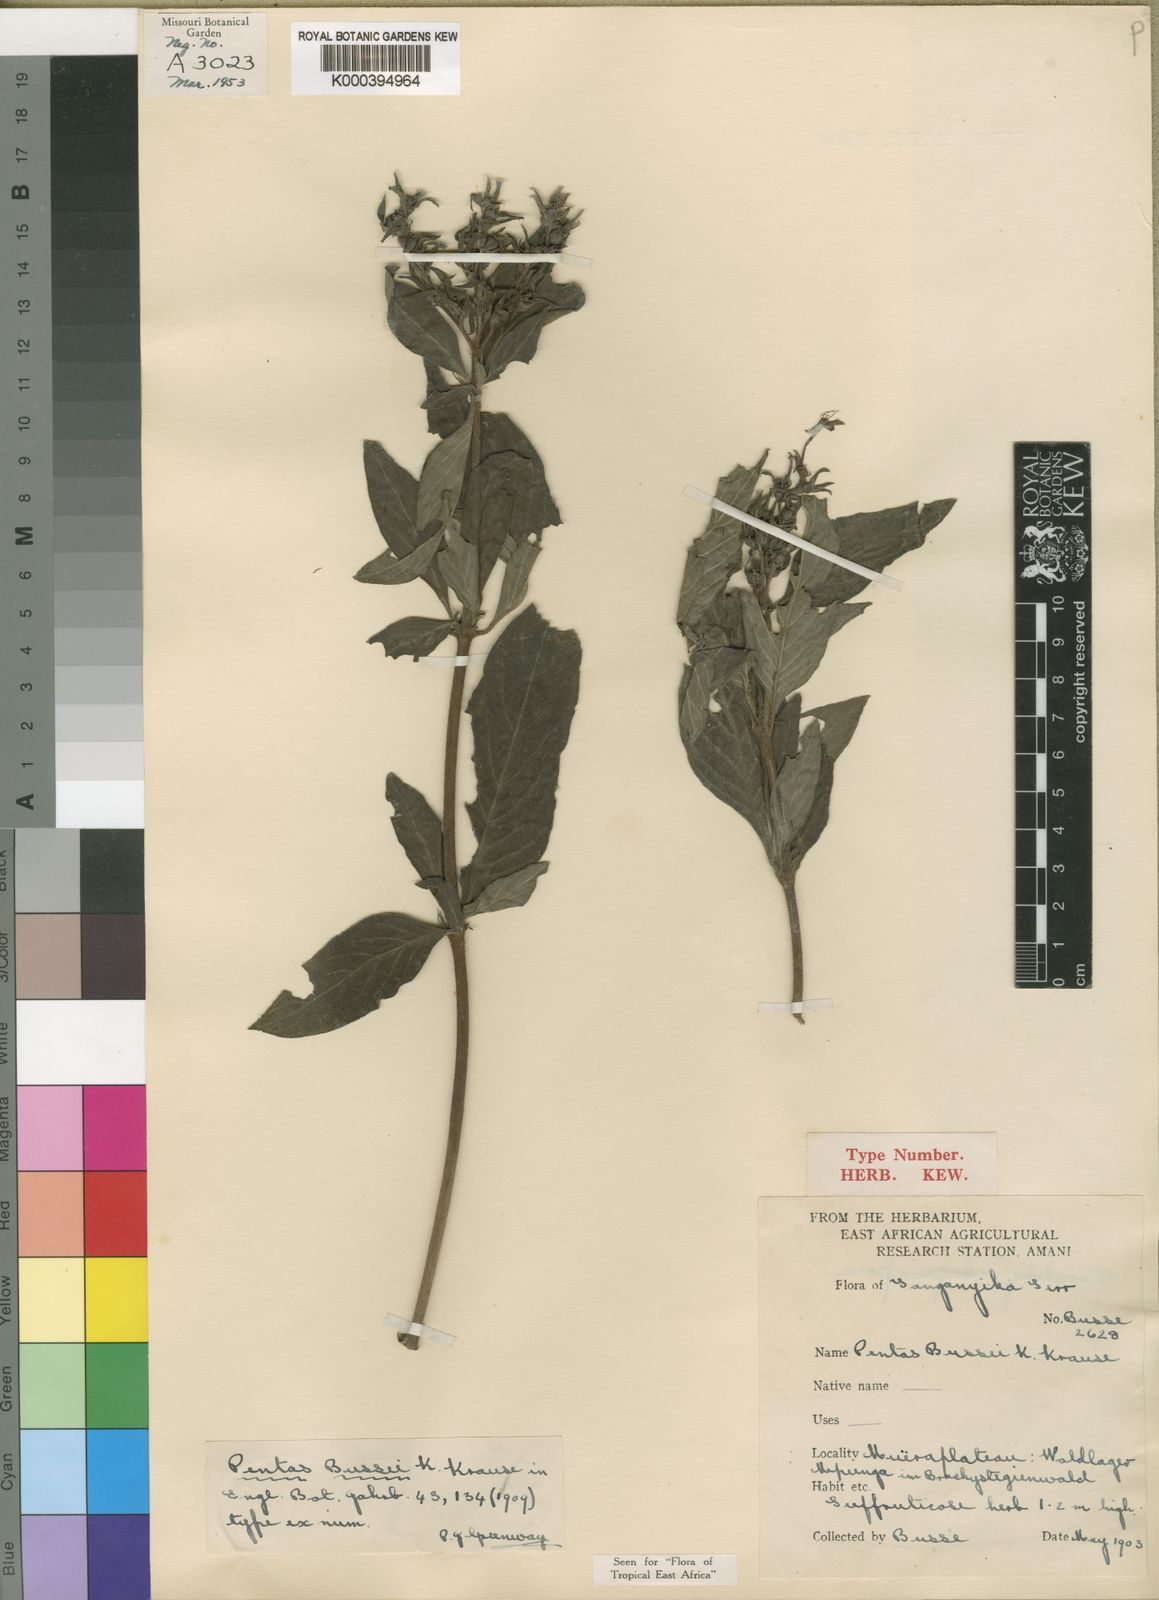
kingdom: Plantae
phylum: Tracheophyta
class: Magnoliopsida
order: Gentianales
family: Rubiaceae
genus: Rhodopentas
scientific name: Rhodopentas
